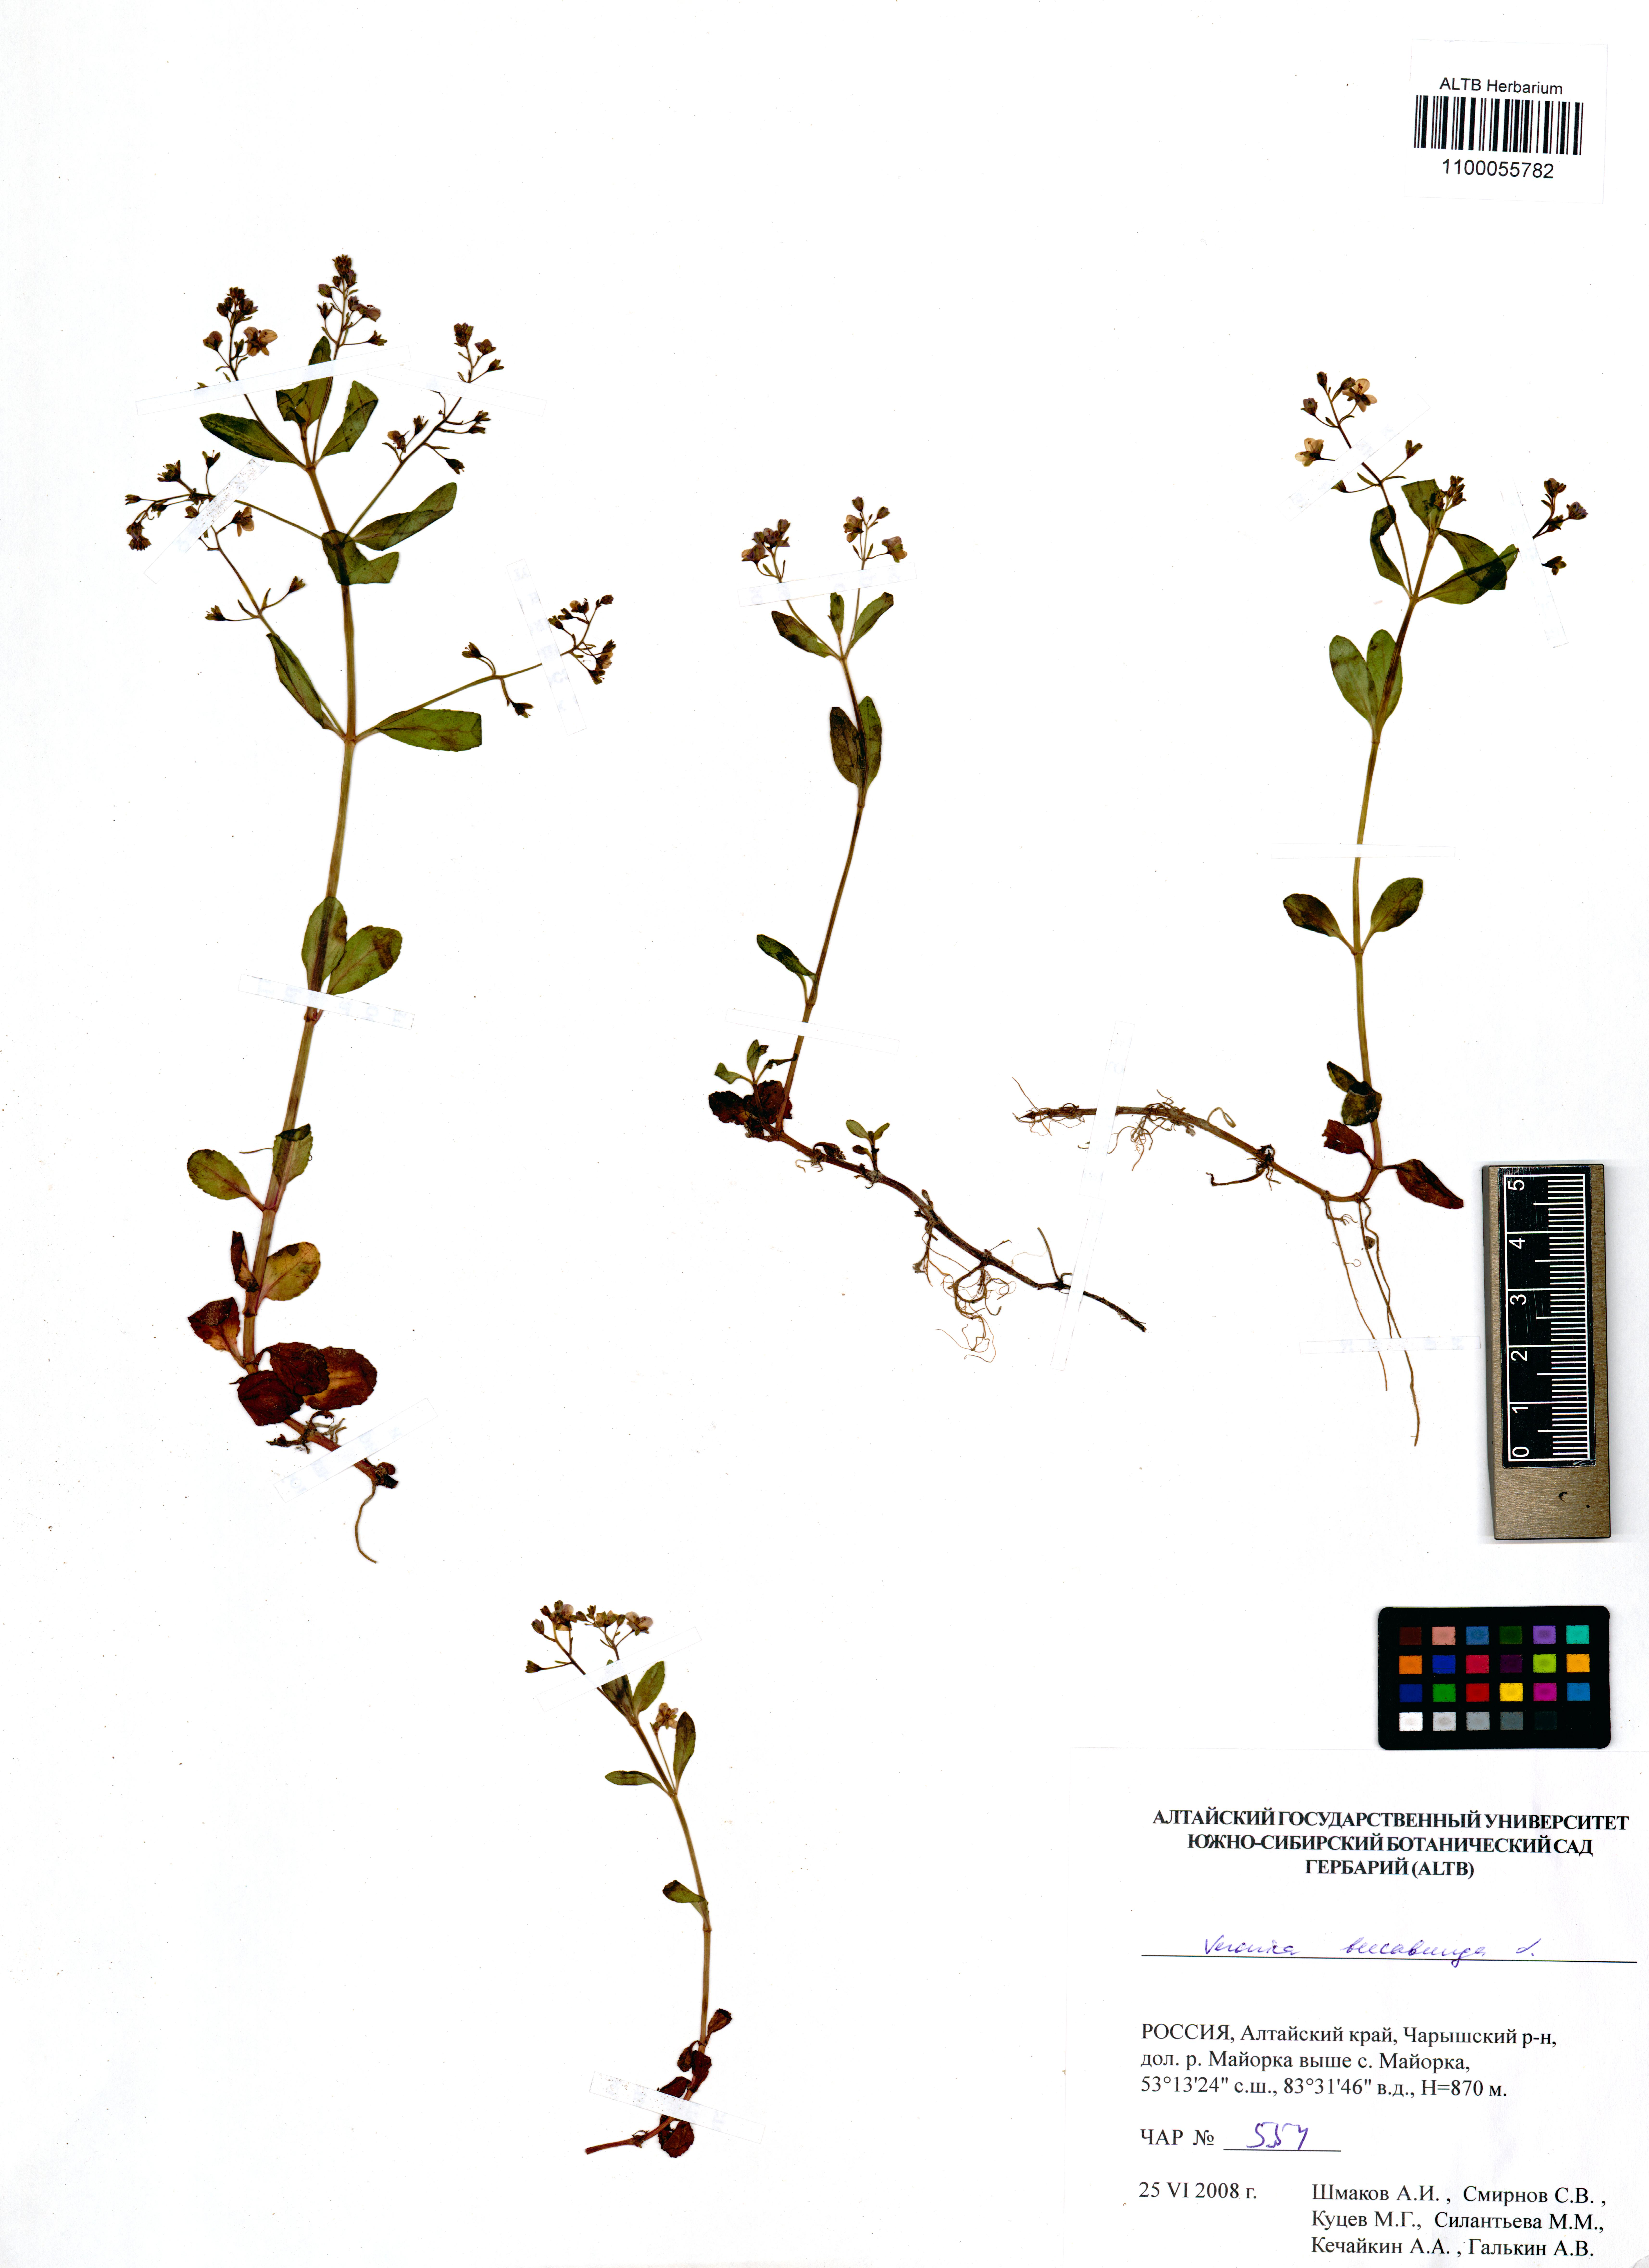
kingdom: Plantae
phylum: Tracheophyta
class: Magnoliopsida
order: Lamiales
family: Plantaginaceae
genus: Veronica
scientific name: Veronica beccabunga
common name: Brooklime
